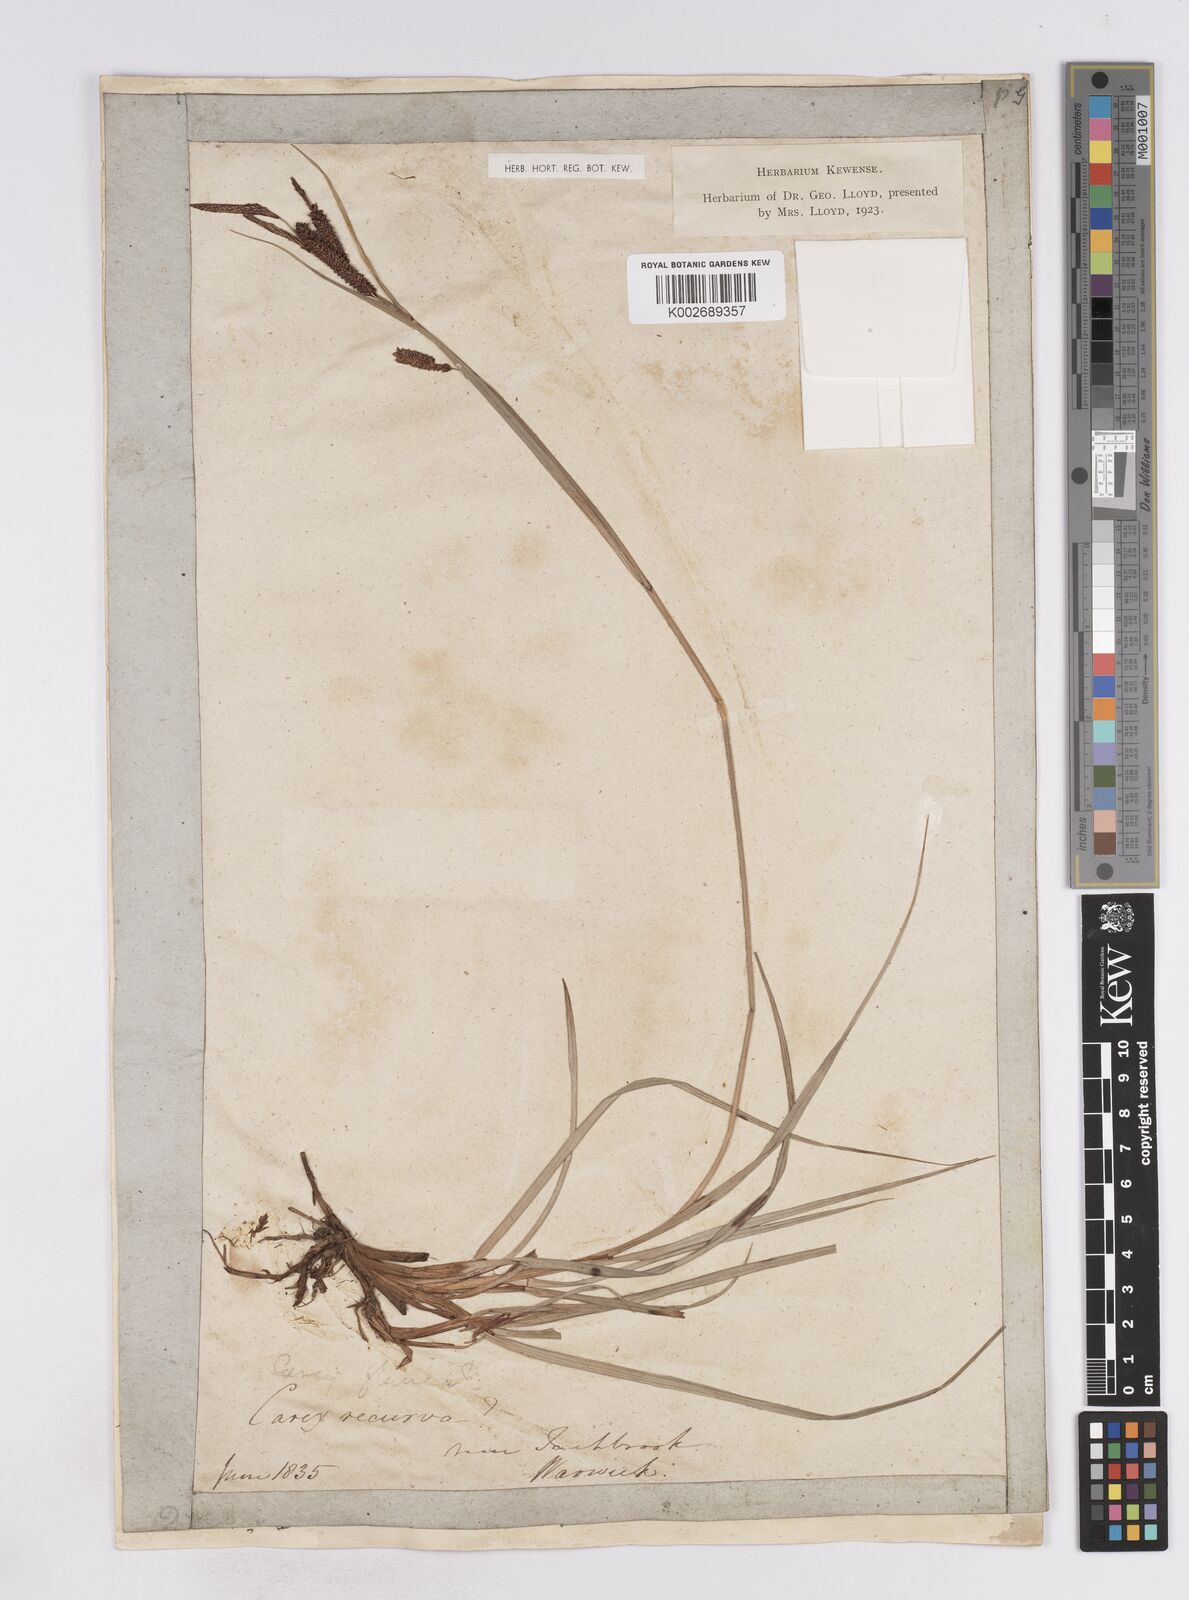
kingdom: Plantae
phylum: Tracheophyta
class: Liliopsida
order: Poales
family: Cyperaceae
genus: Carex
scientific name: Carex flacca
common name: Glaucous sedge
